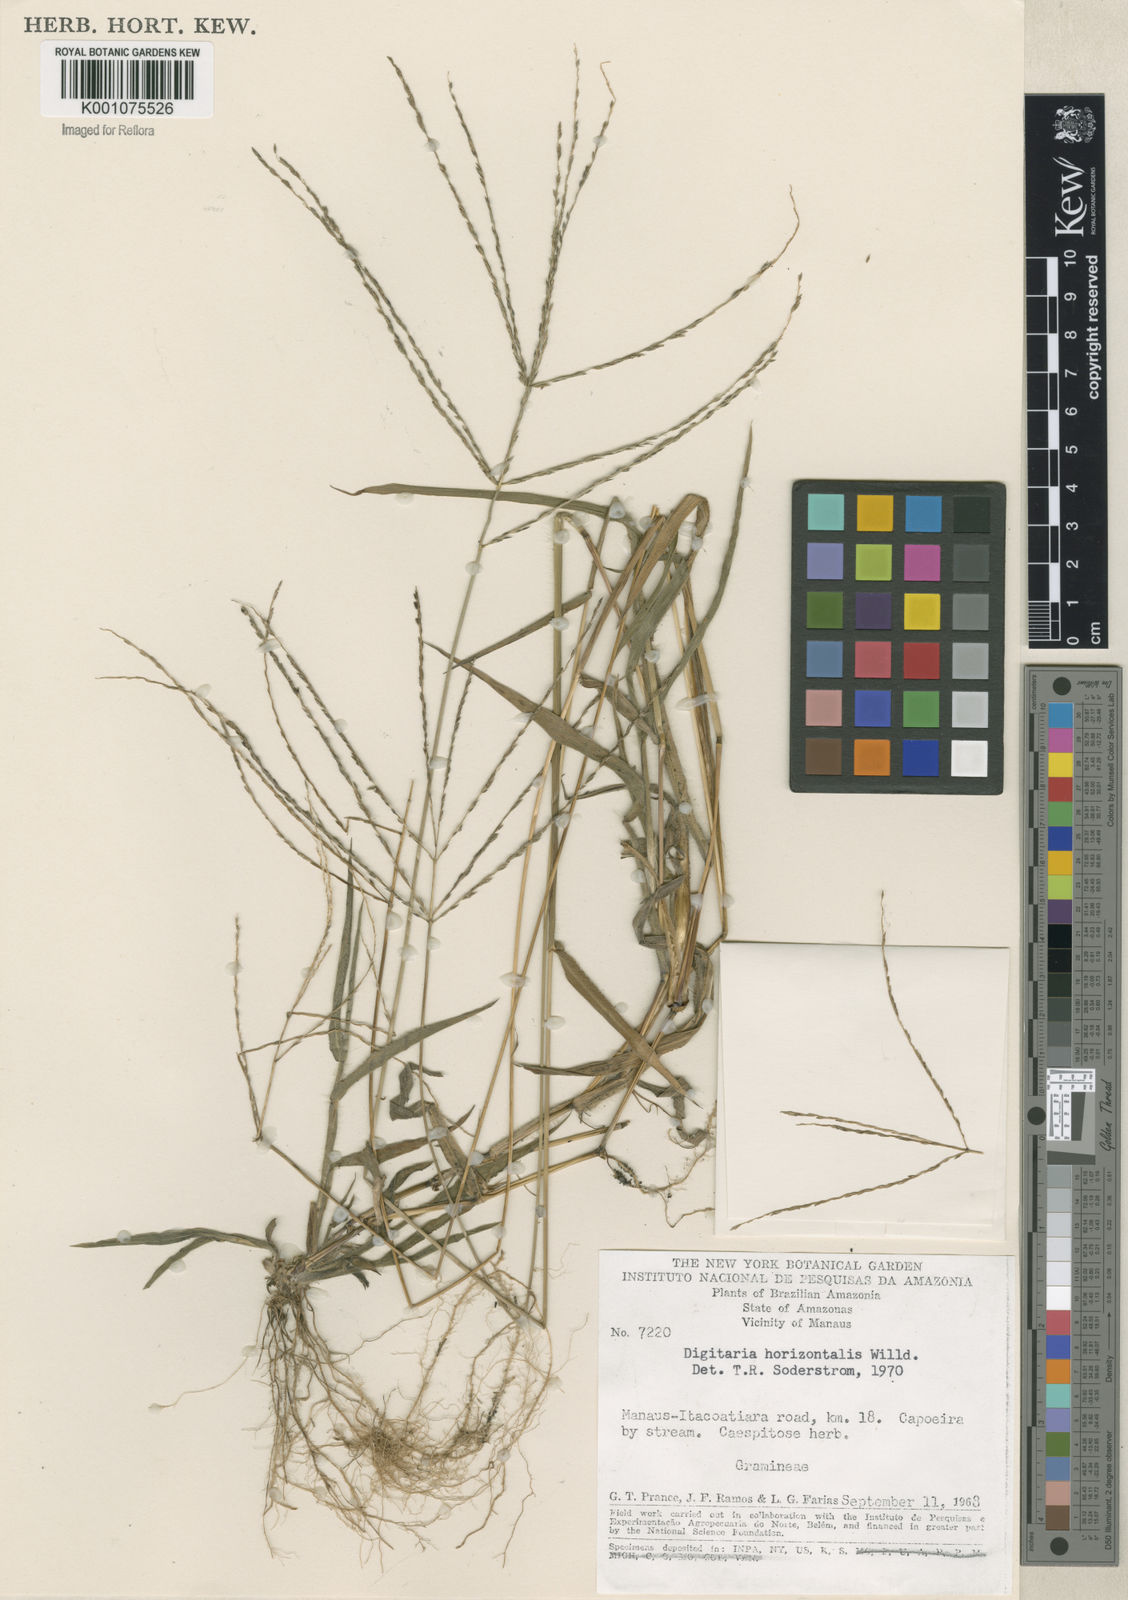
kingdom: Plantae
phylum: Tracheophyta
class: Liliopsida
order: Poales
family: Poaceae
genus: Digitaria
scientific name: Digitaria horizontalis
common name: Jamaican crabgrass
